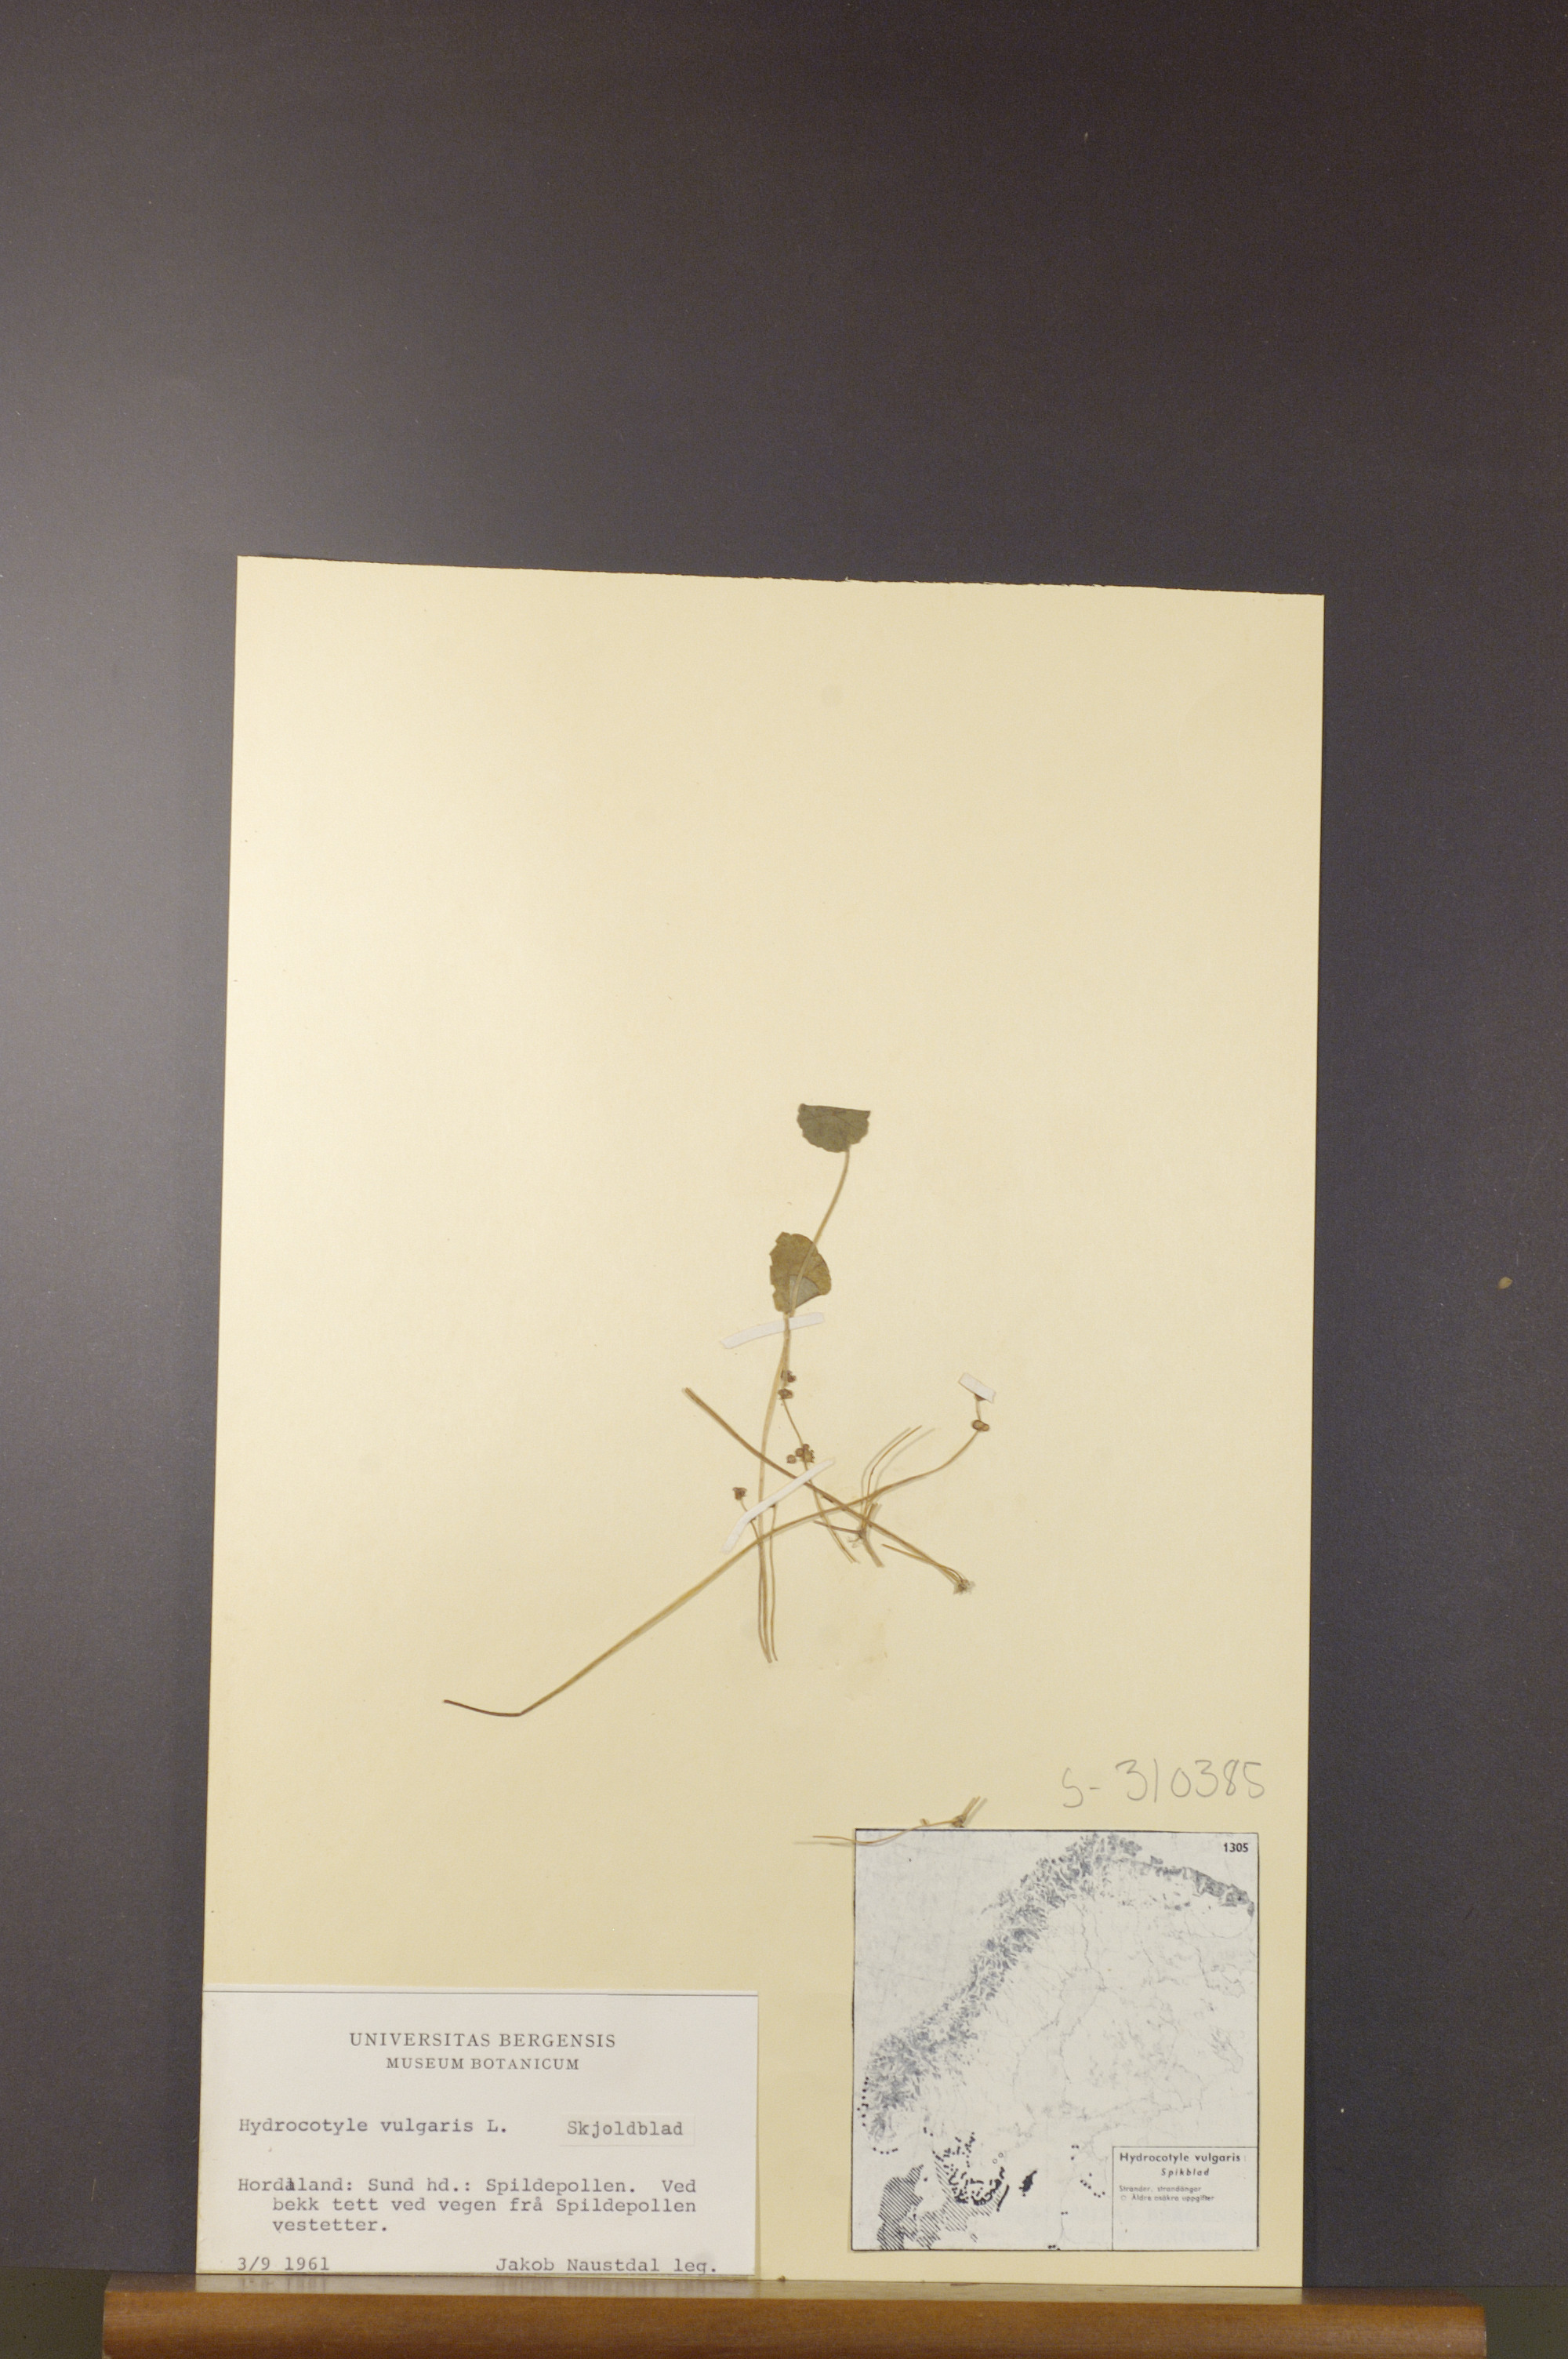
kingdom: Plantae
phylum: Tracheophyta
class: Magnoliopsida
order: Apiales
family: Araliaceae
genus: Hydrocotyle
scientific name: Hydrocotyle vulgaris
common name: Marsh pennywort
